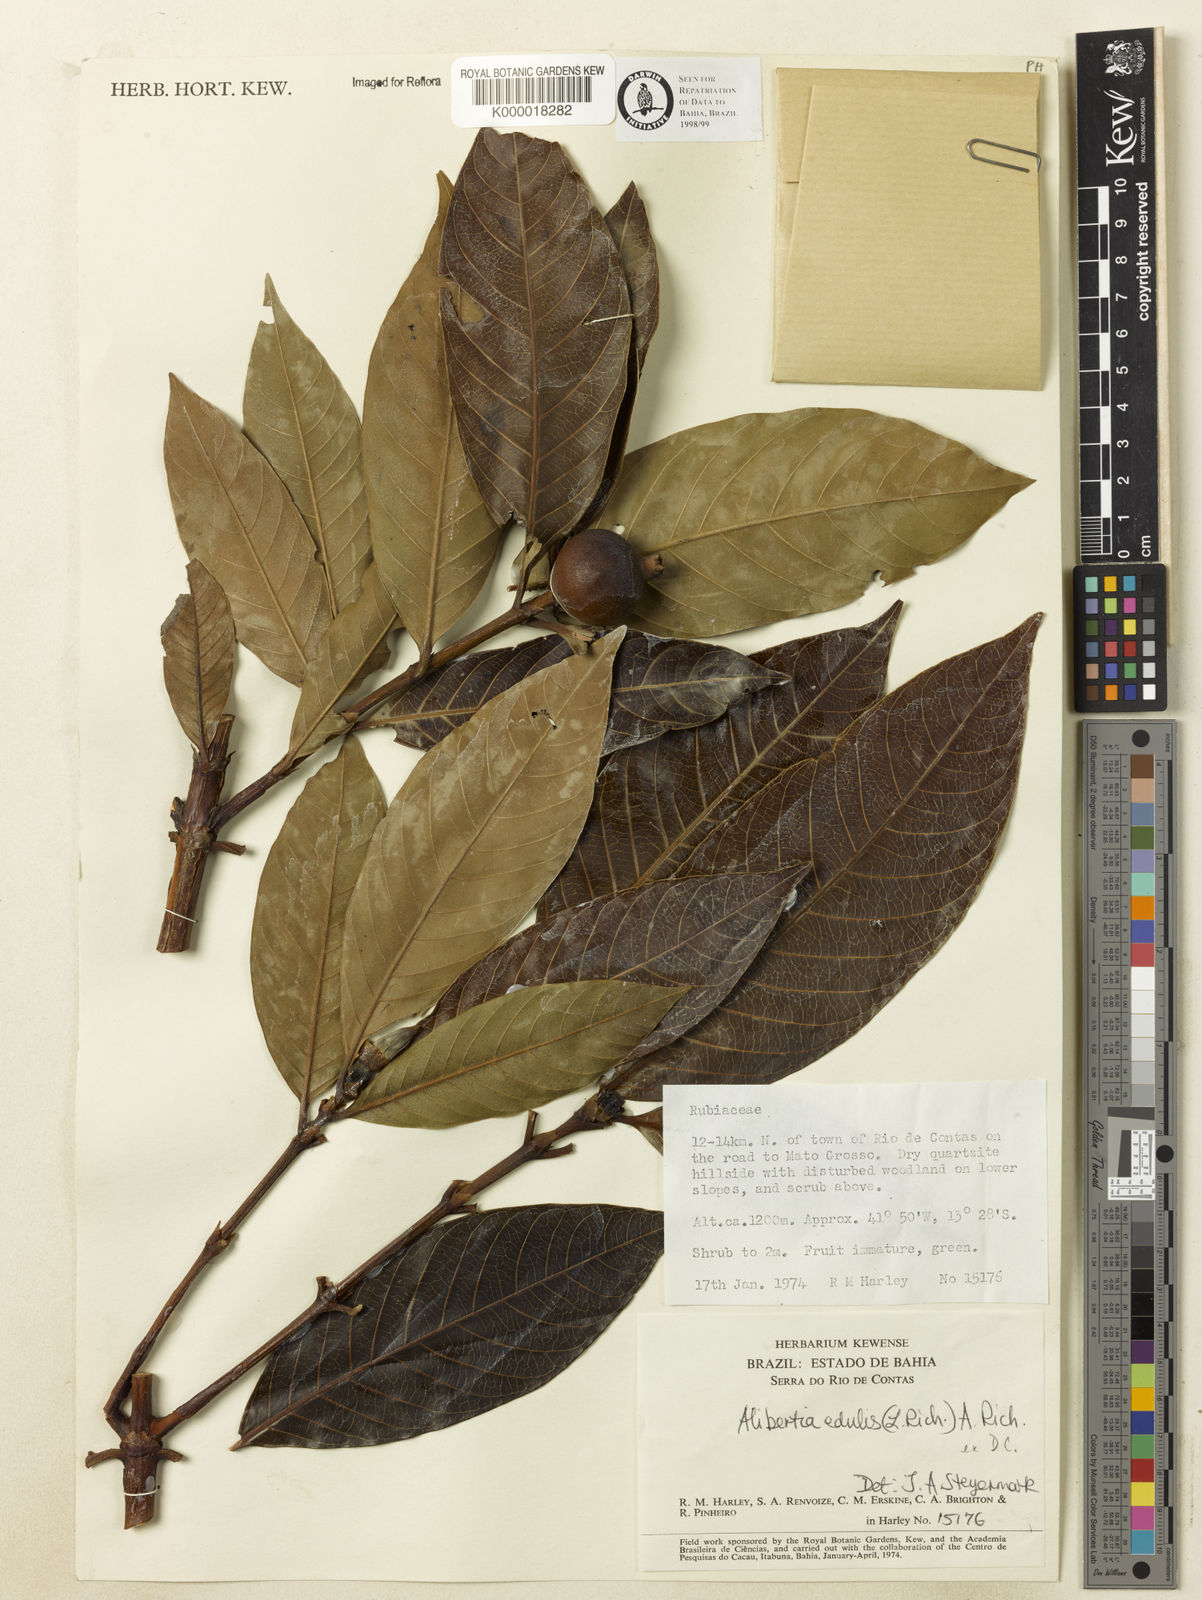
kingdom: Plantae
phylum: Tracheophyta
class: Magnoliopsida
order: Gentianales
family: Rubiaceae
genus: Alibertia
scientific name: Alibertia edulis
